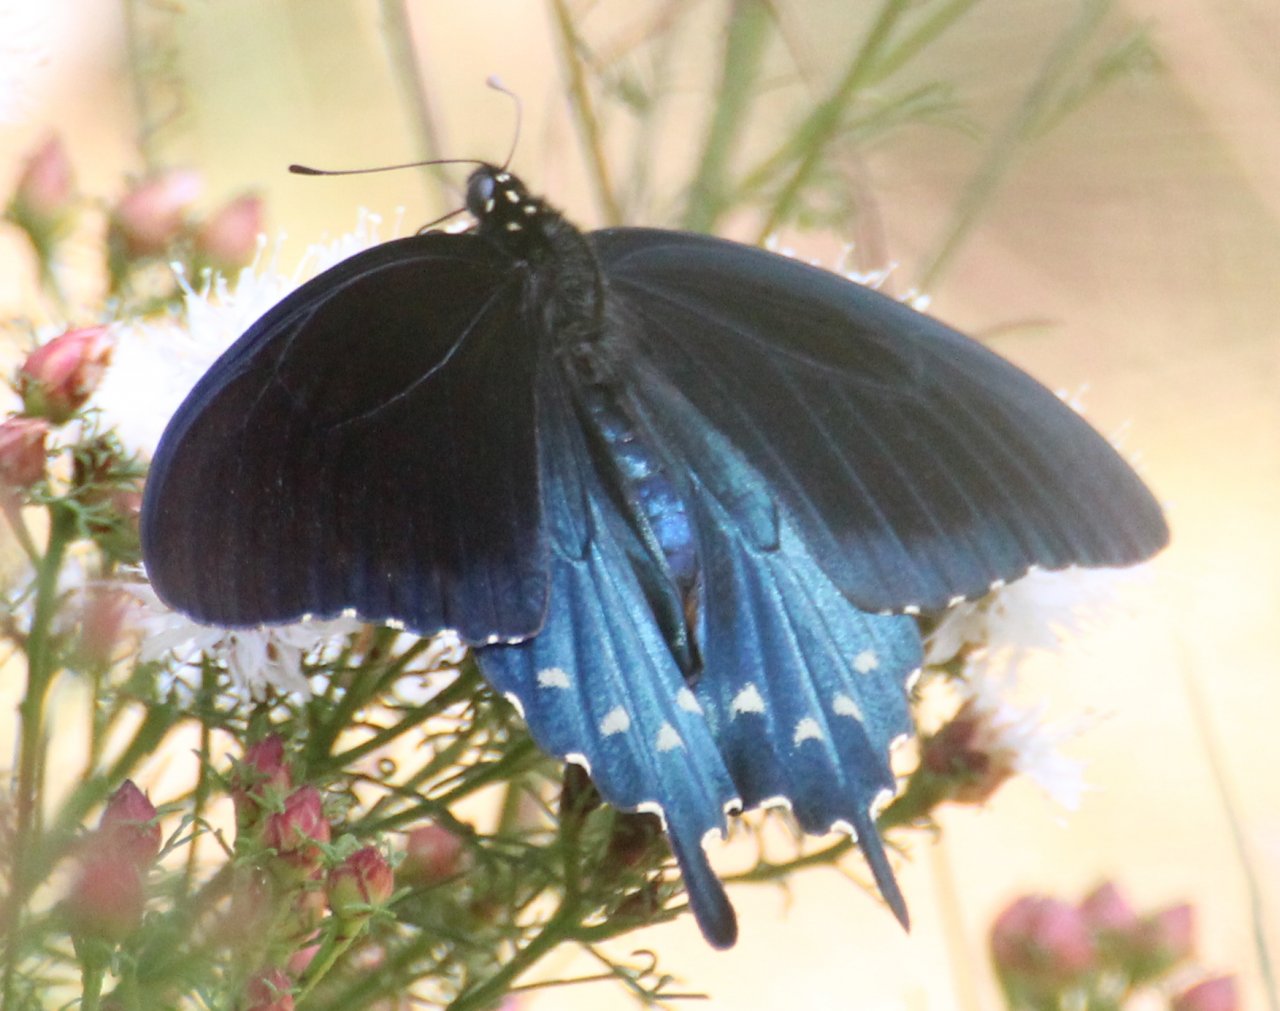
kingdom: Animalia
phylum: Arthropoda
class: Insecta
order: Lepidoptera
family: Papilionidae
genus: Battus
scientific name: Battus philenor
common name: Pipevine Swallowtail
